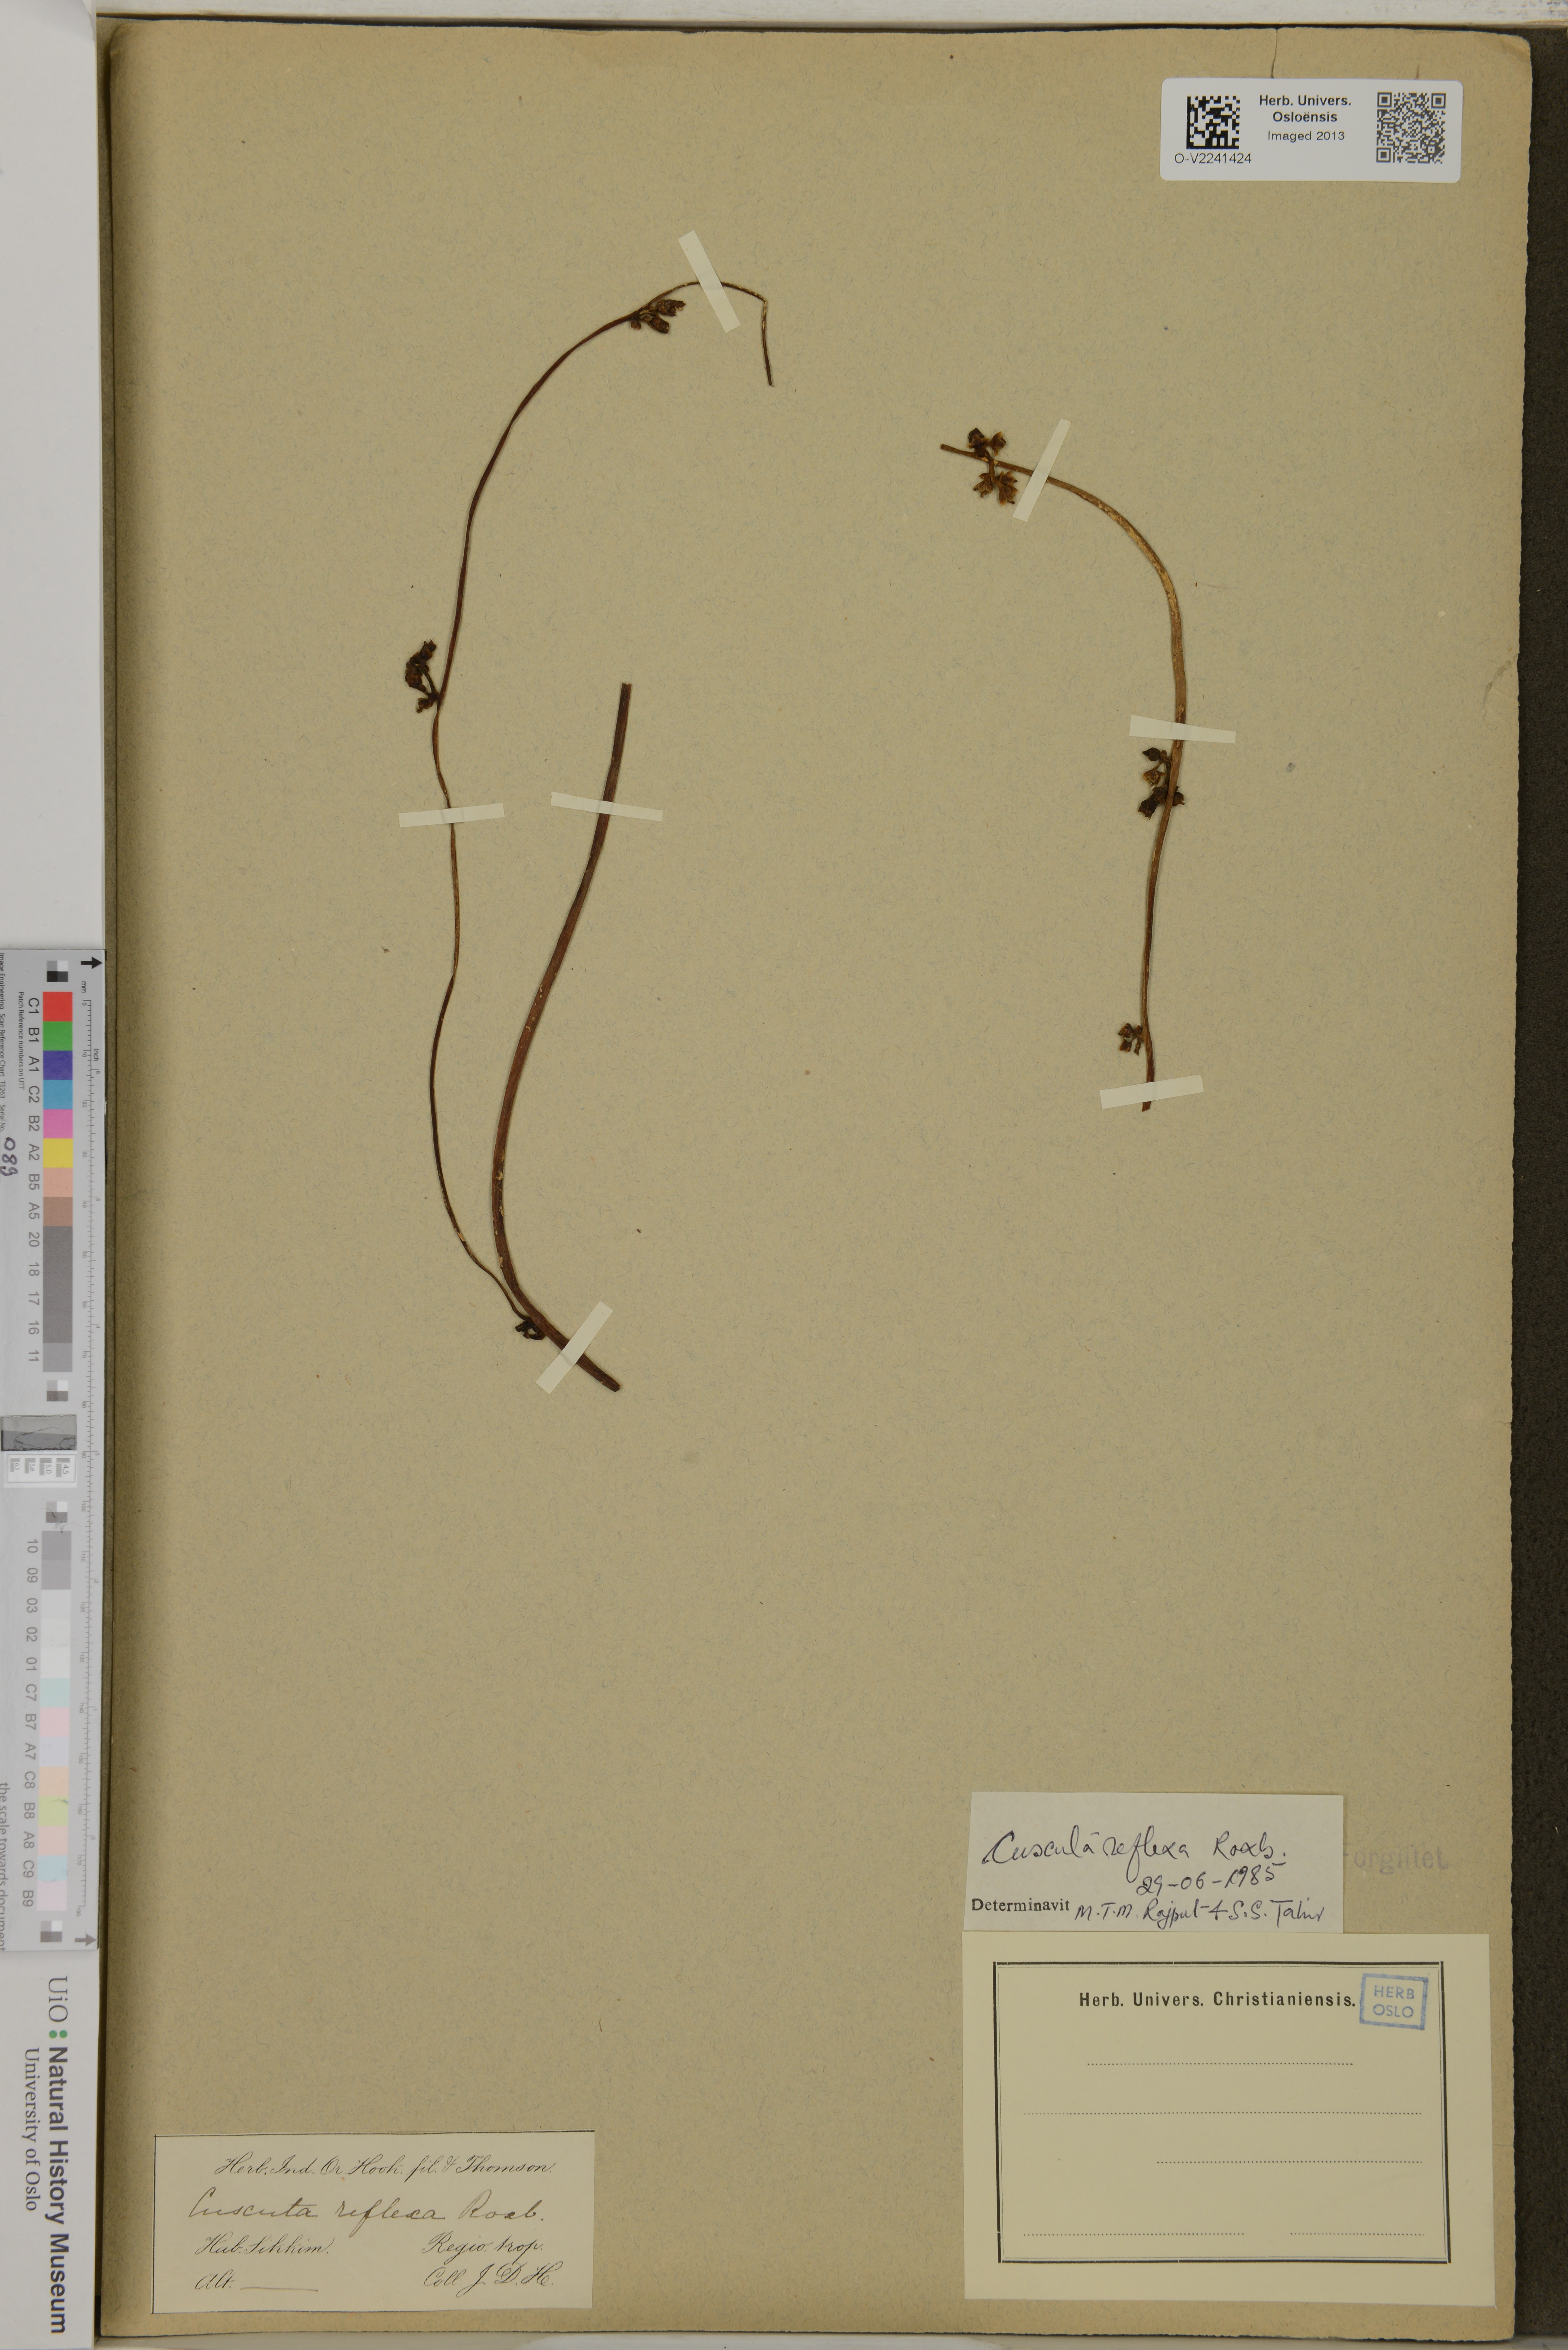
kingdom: Plantae
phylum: Tracheophyta
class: Magnoliopsida
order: Solanales
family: Convolvulaceae
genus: Cuscuta
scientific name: Cuscuta reflexa
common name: Giant dodder
